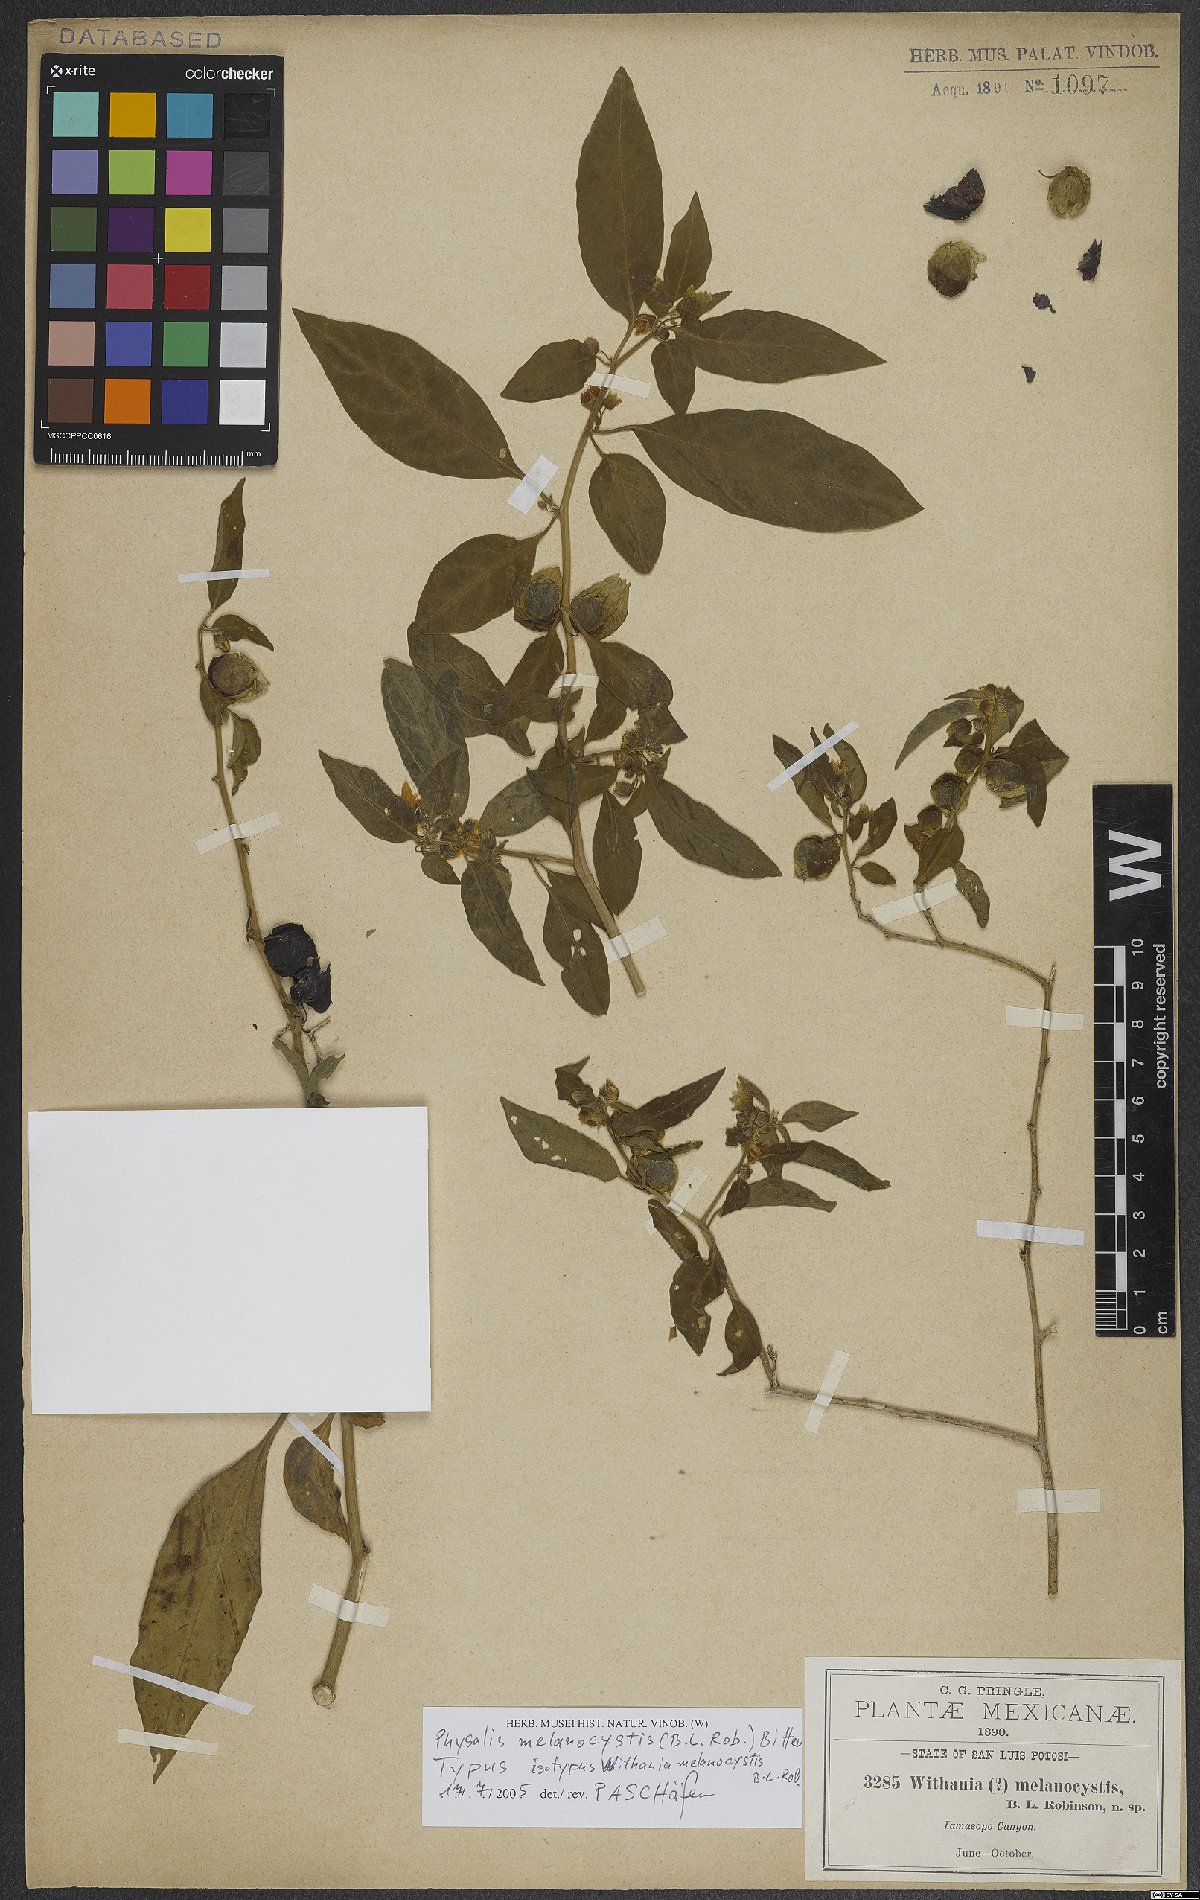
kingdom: Plantae
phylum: Tracheophyta
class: Magnoliopsida
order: Solanales
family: Solanaceae
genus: Physalis
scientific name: Physalis melanocystis
